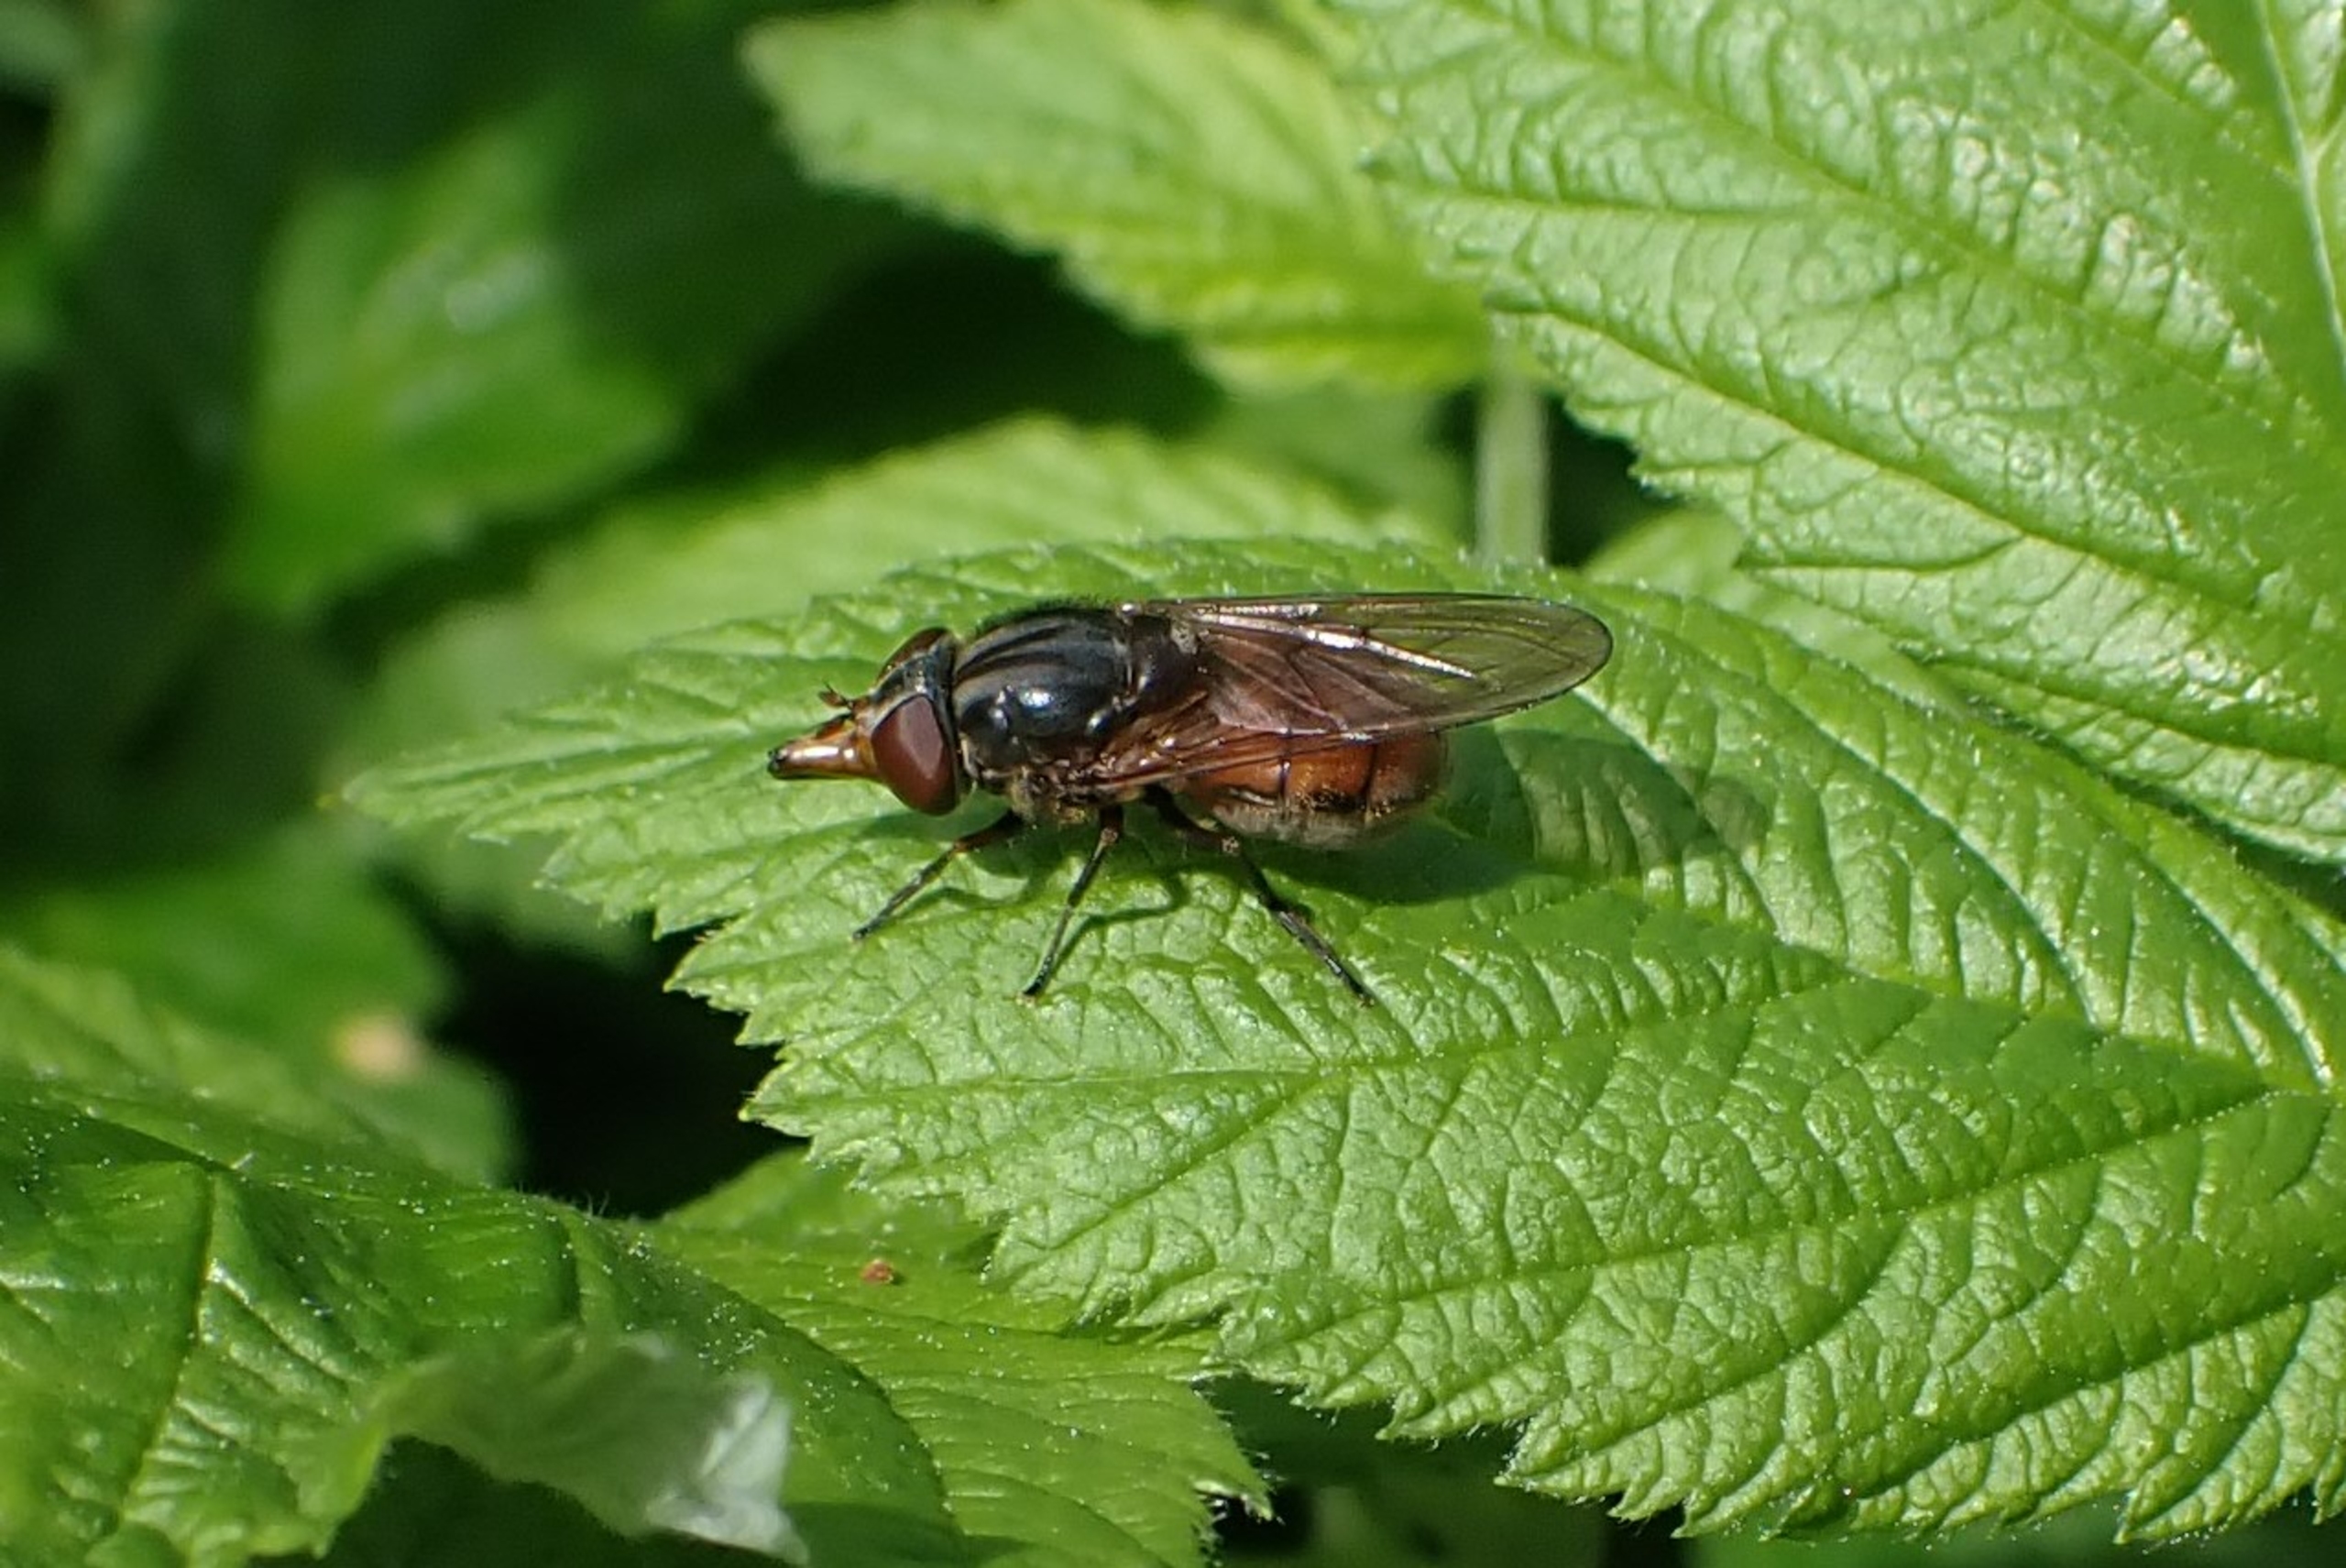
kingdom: Animalia
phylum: Arthropoda
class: Insecta
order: Diptera
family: Syrphidae
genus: Rhingia
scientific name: Rhingia campestris
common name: Mark-snabelsvirreflue
